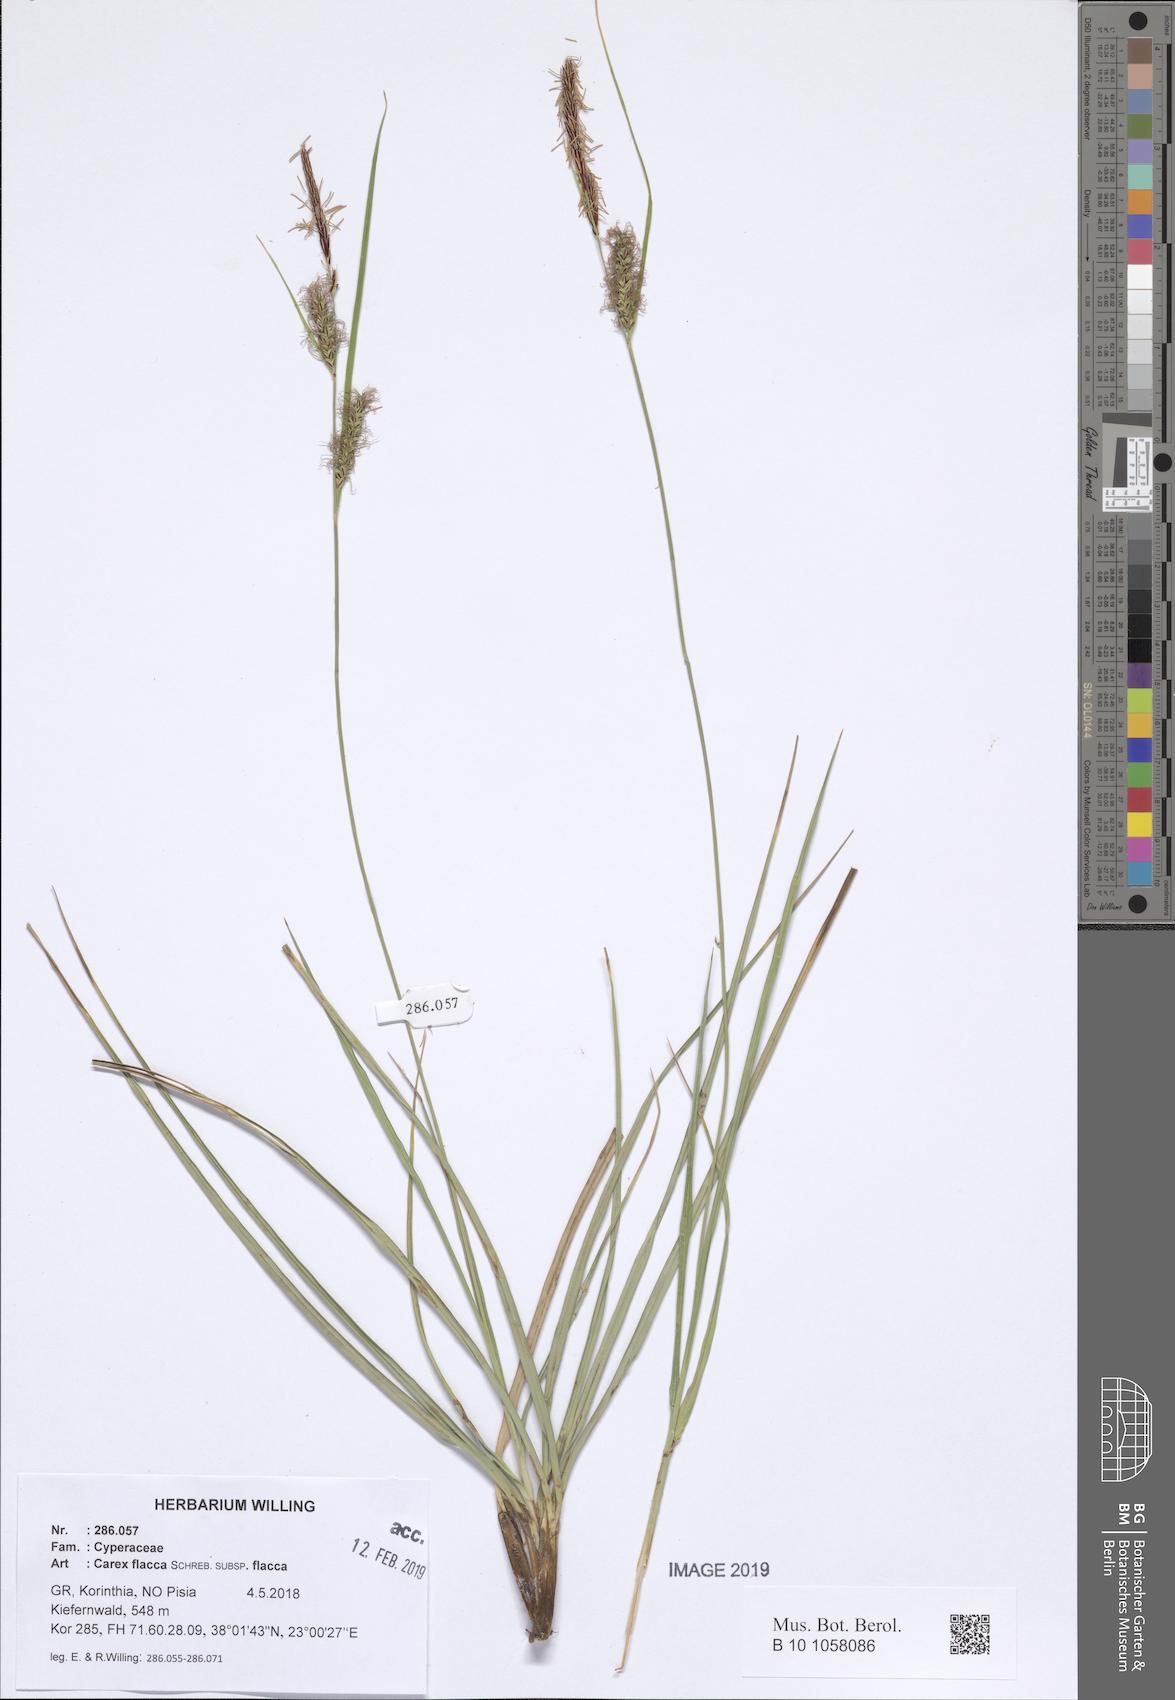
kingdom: Plantae
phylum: Tracheophyta
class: Liliopsida
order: Poales
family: Cyperaceae
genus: Carex
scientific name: Carex flacca
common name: Glaucous sedge
